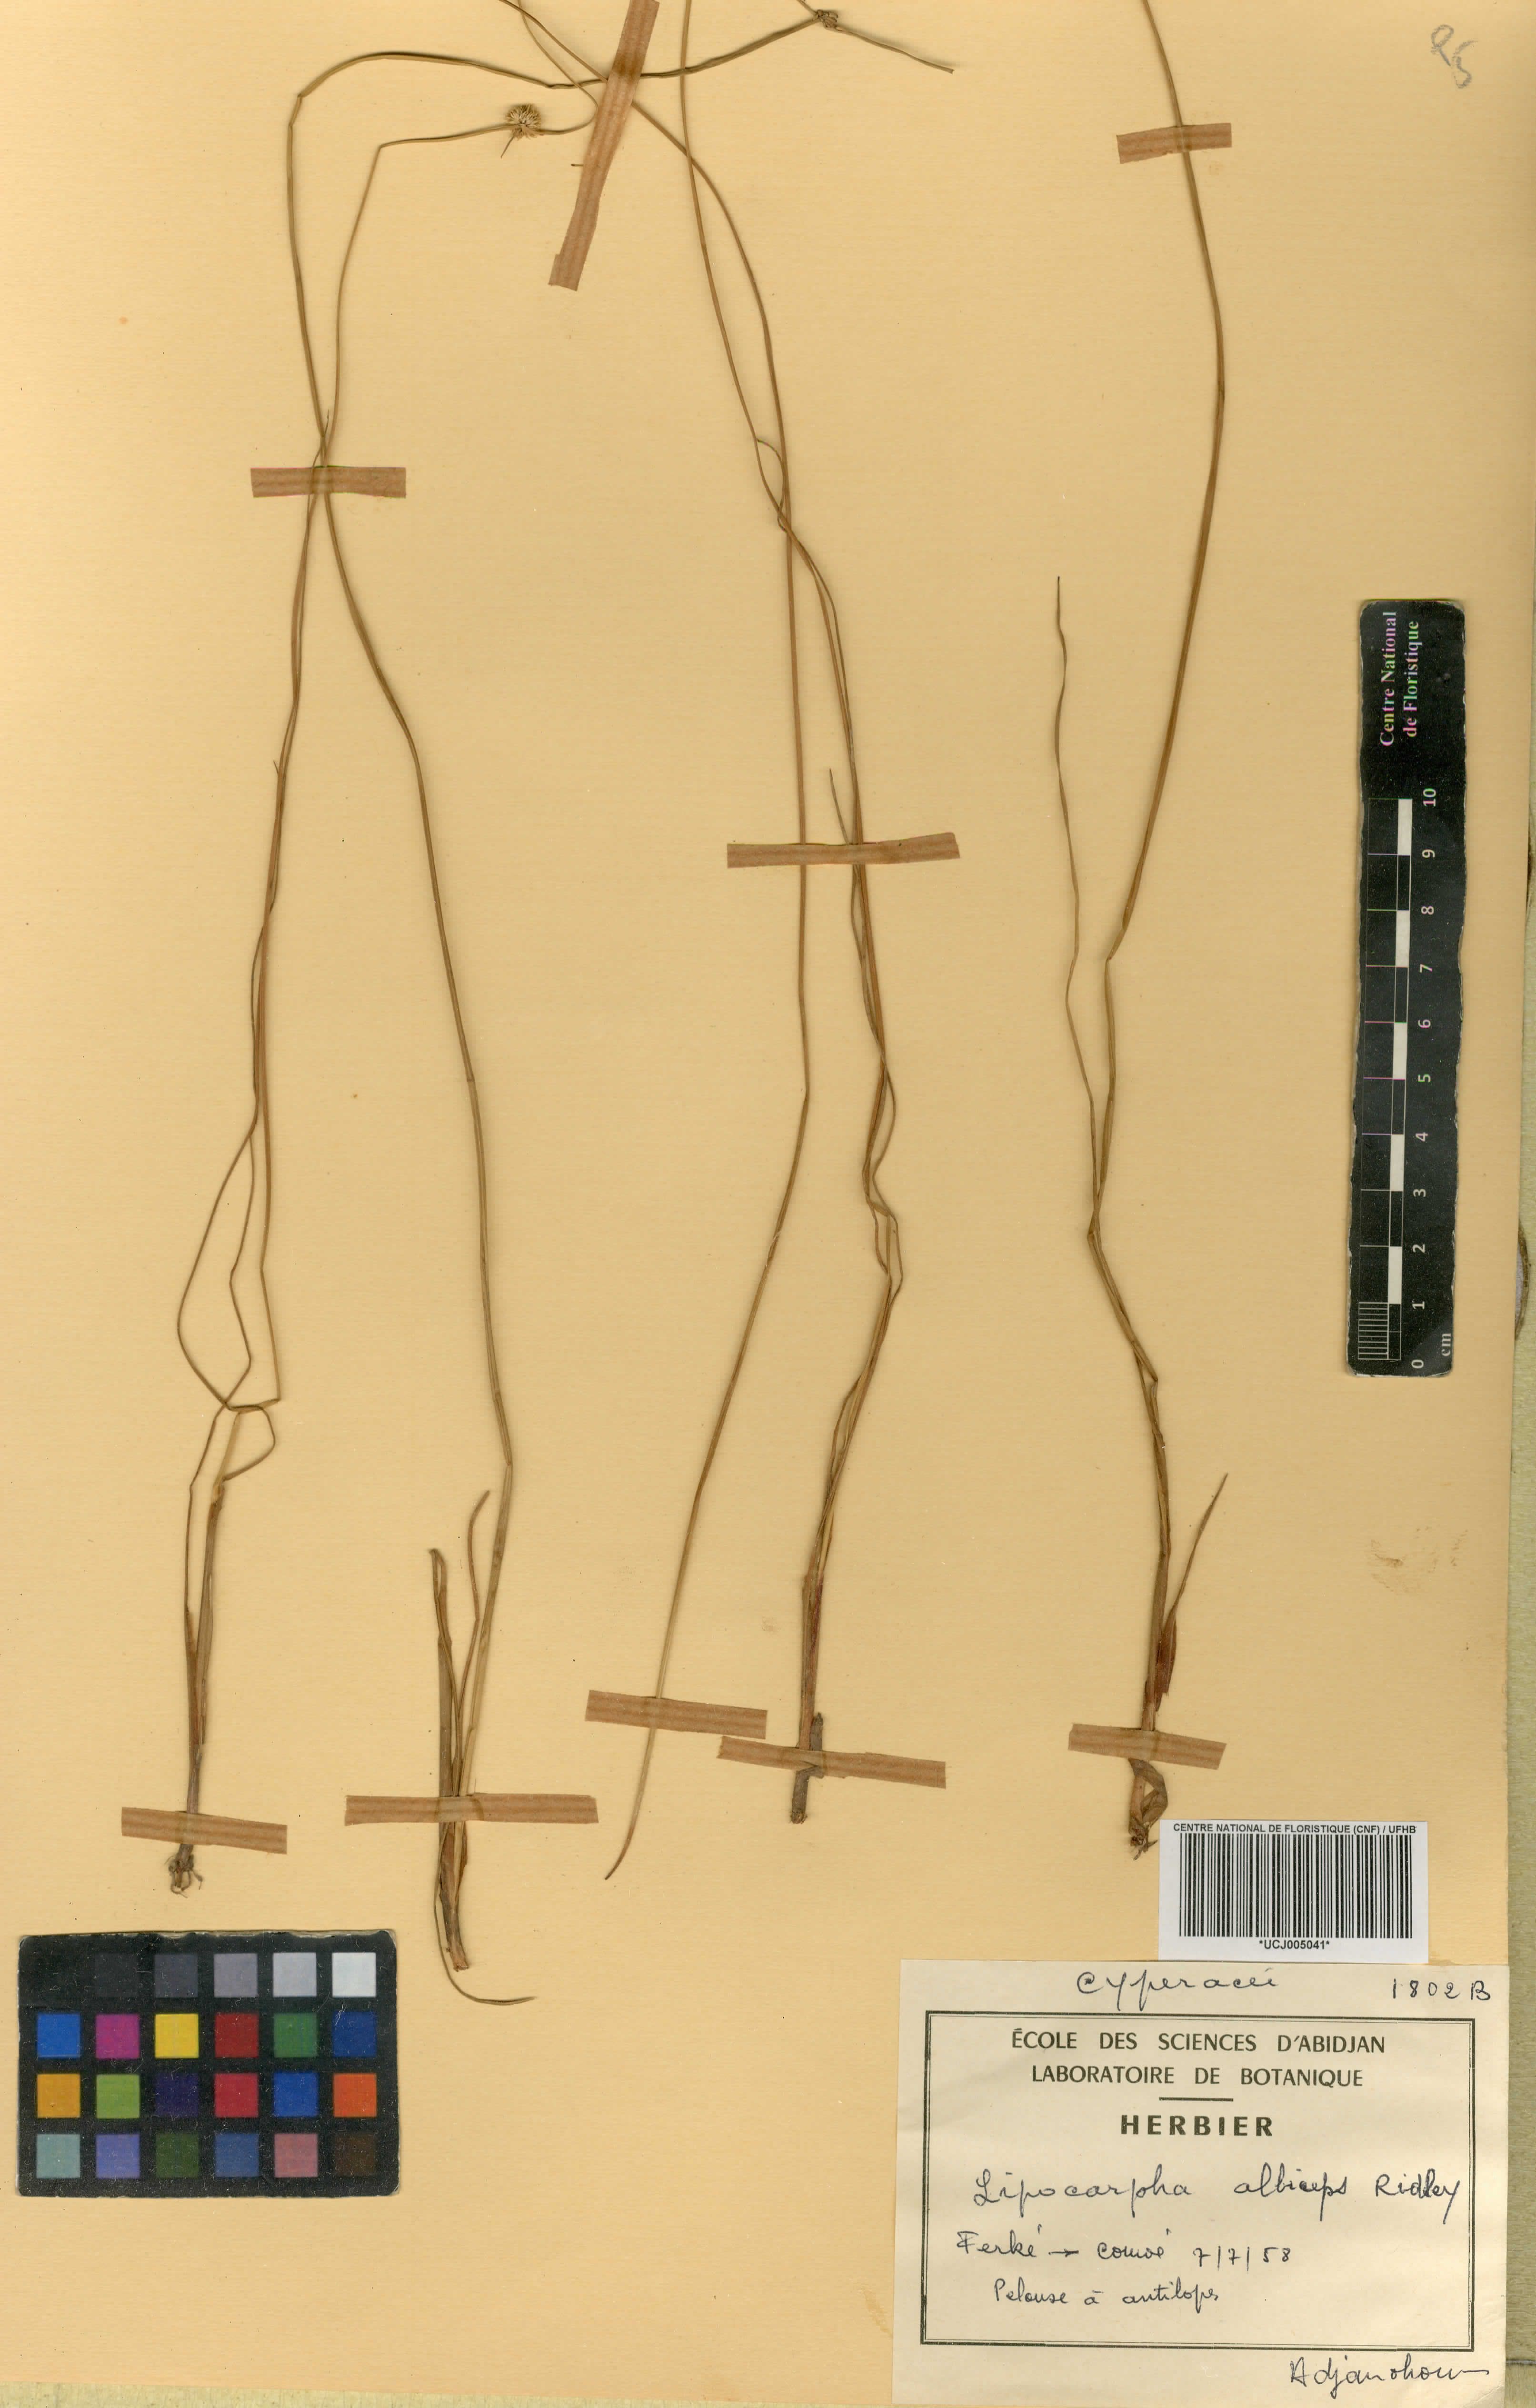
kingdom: Plantae
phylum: Tracheophyta
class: Liliopsida
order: Poales
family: Cyperaceae
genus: Cyperus
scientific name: Cyperus purpureoluteus
